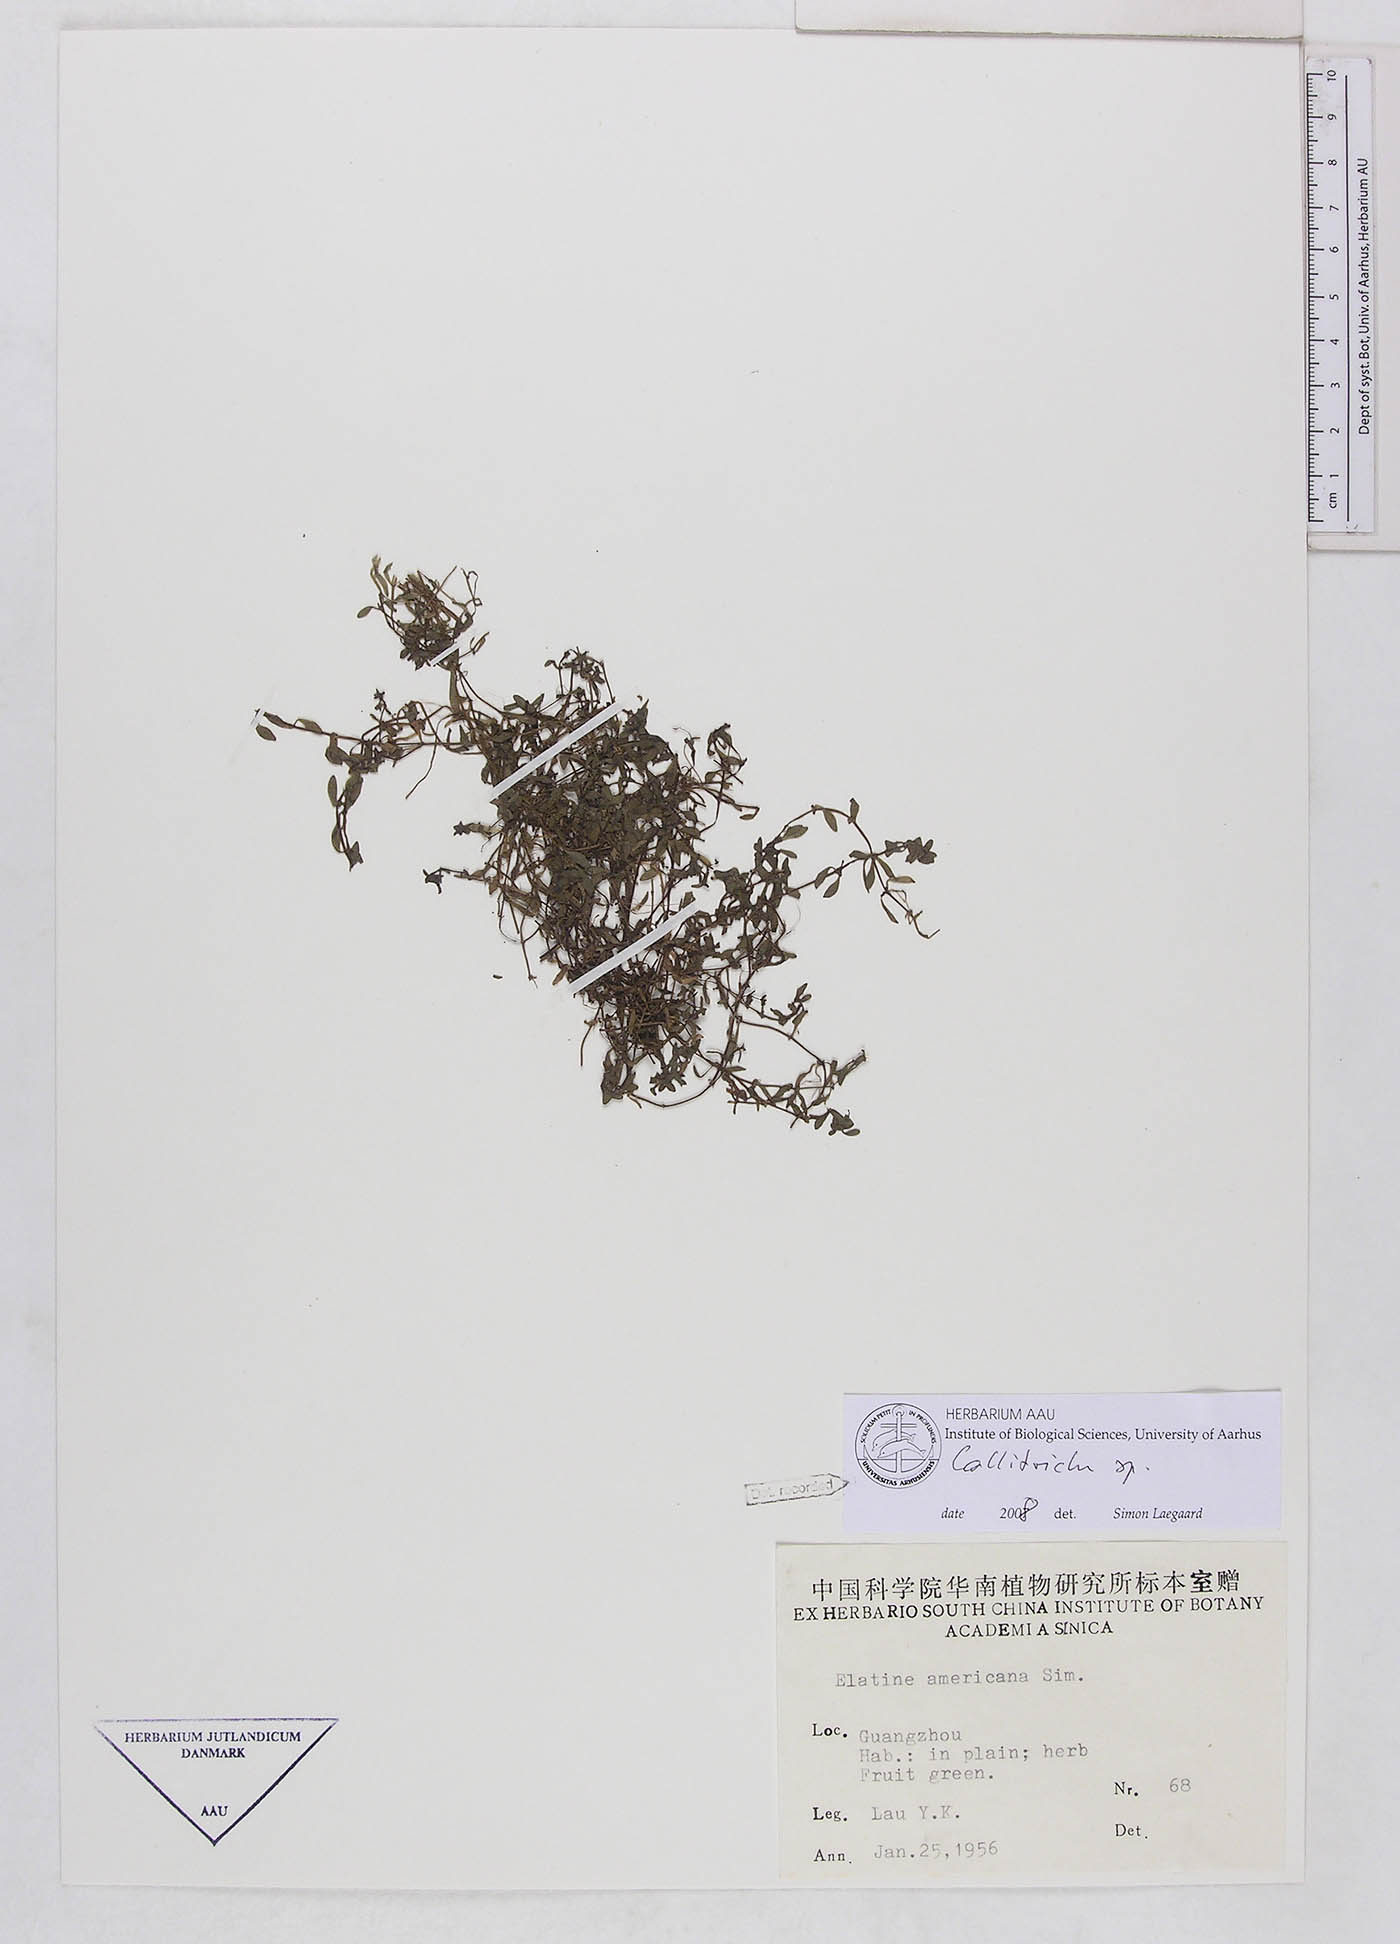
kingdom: Plantae
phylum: Tracheophyta
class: Magnoliopsida
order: Lamiales
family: Plantaginaceae
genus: Callitriche
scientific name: Callitriche
